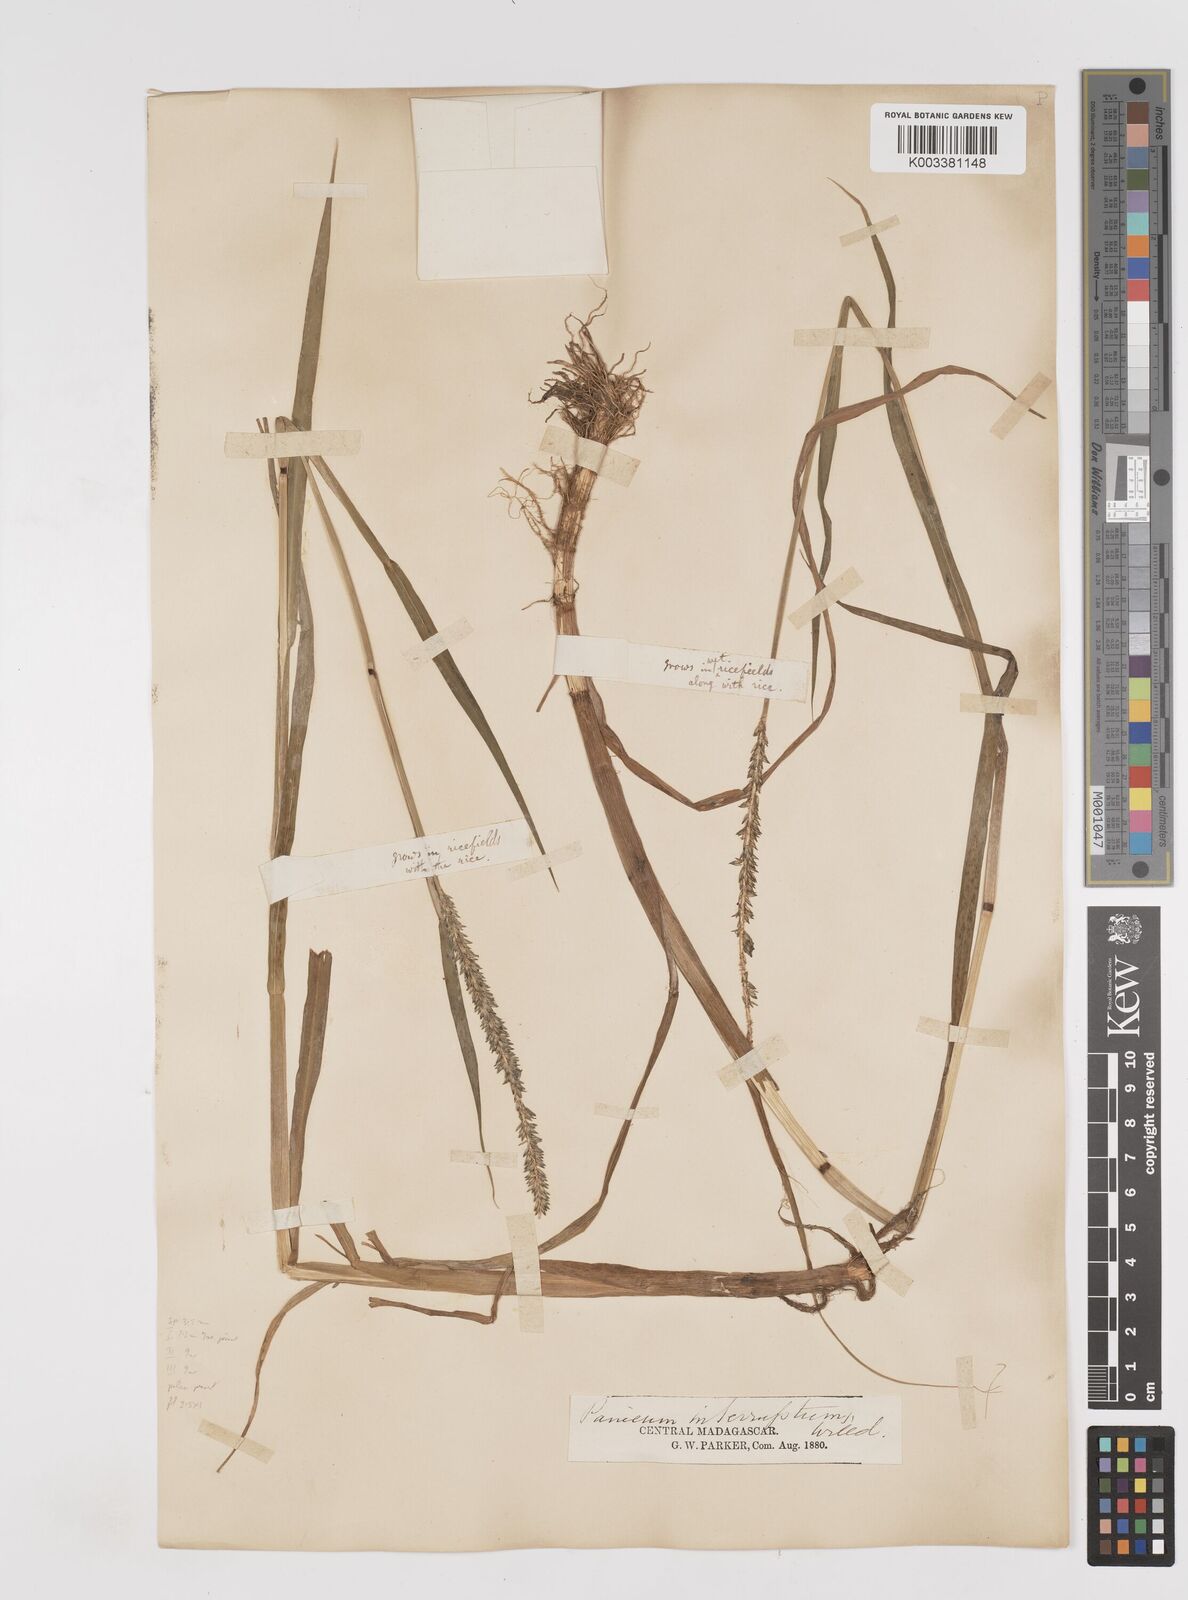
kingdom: Plantae
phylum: Tracheophyta
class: Liliopsida
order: Poales
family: Poaceae
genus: Sacciolepis
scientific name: Sacciolepis africana
